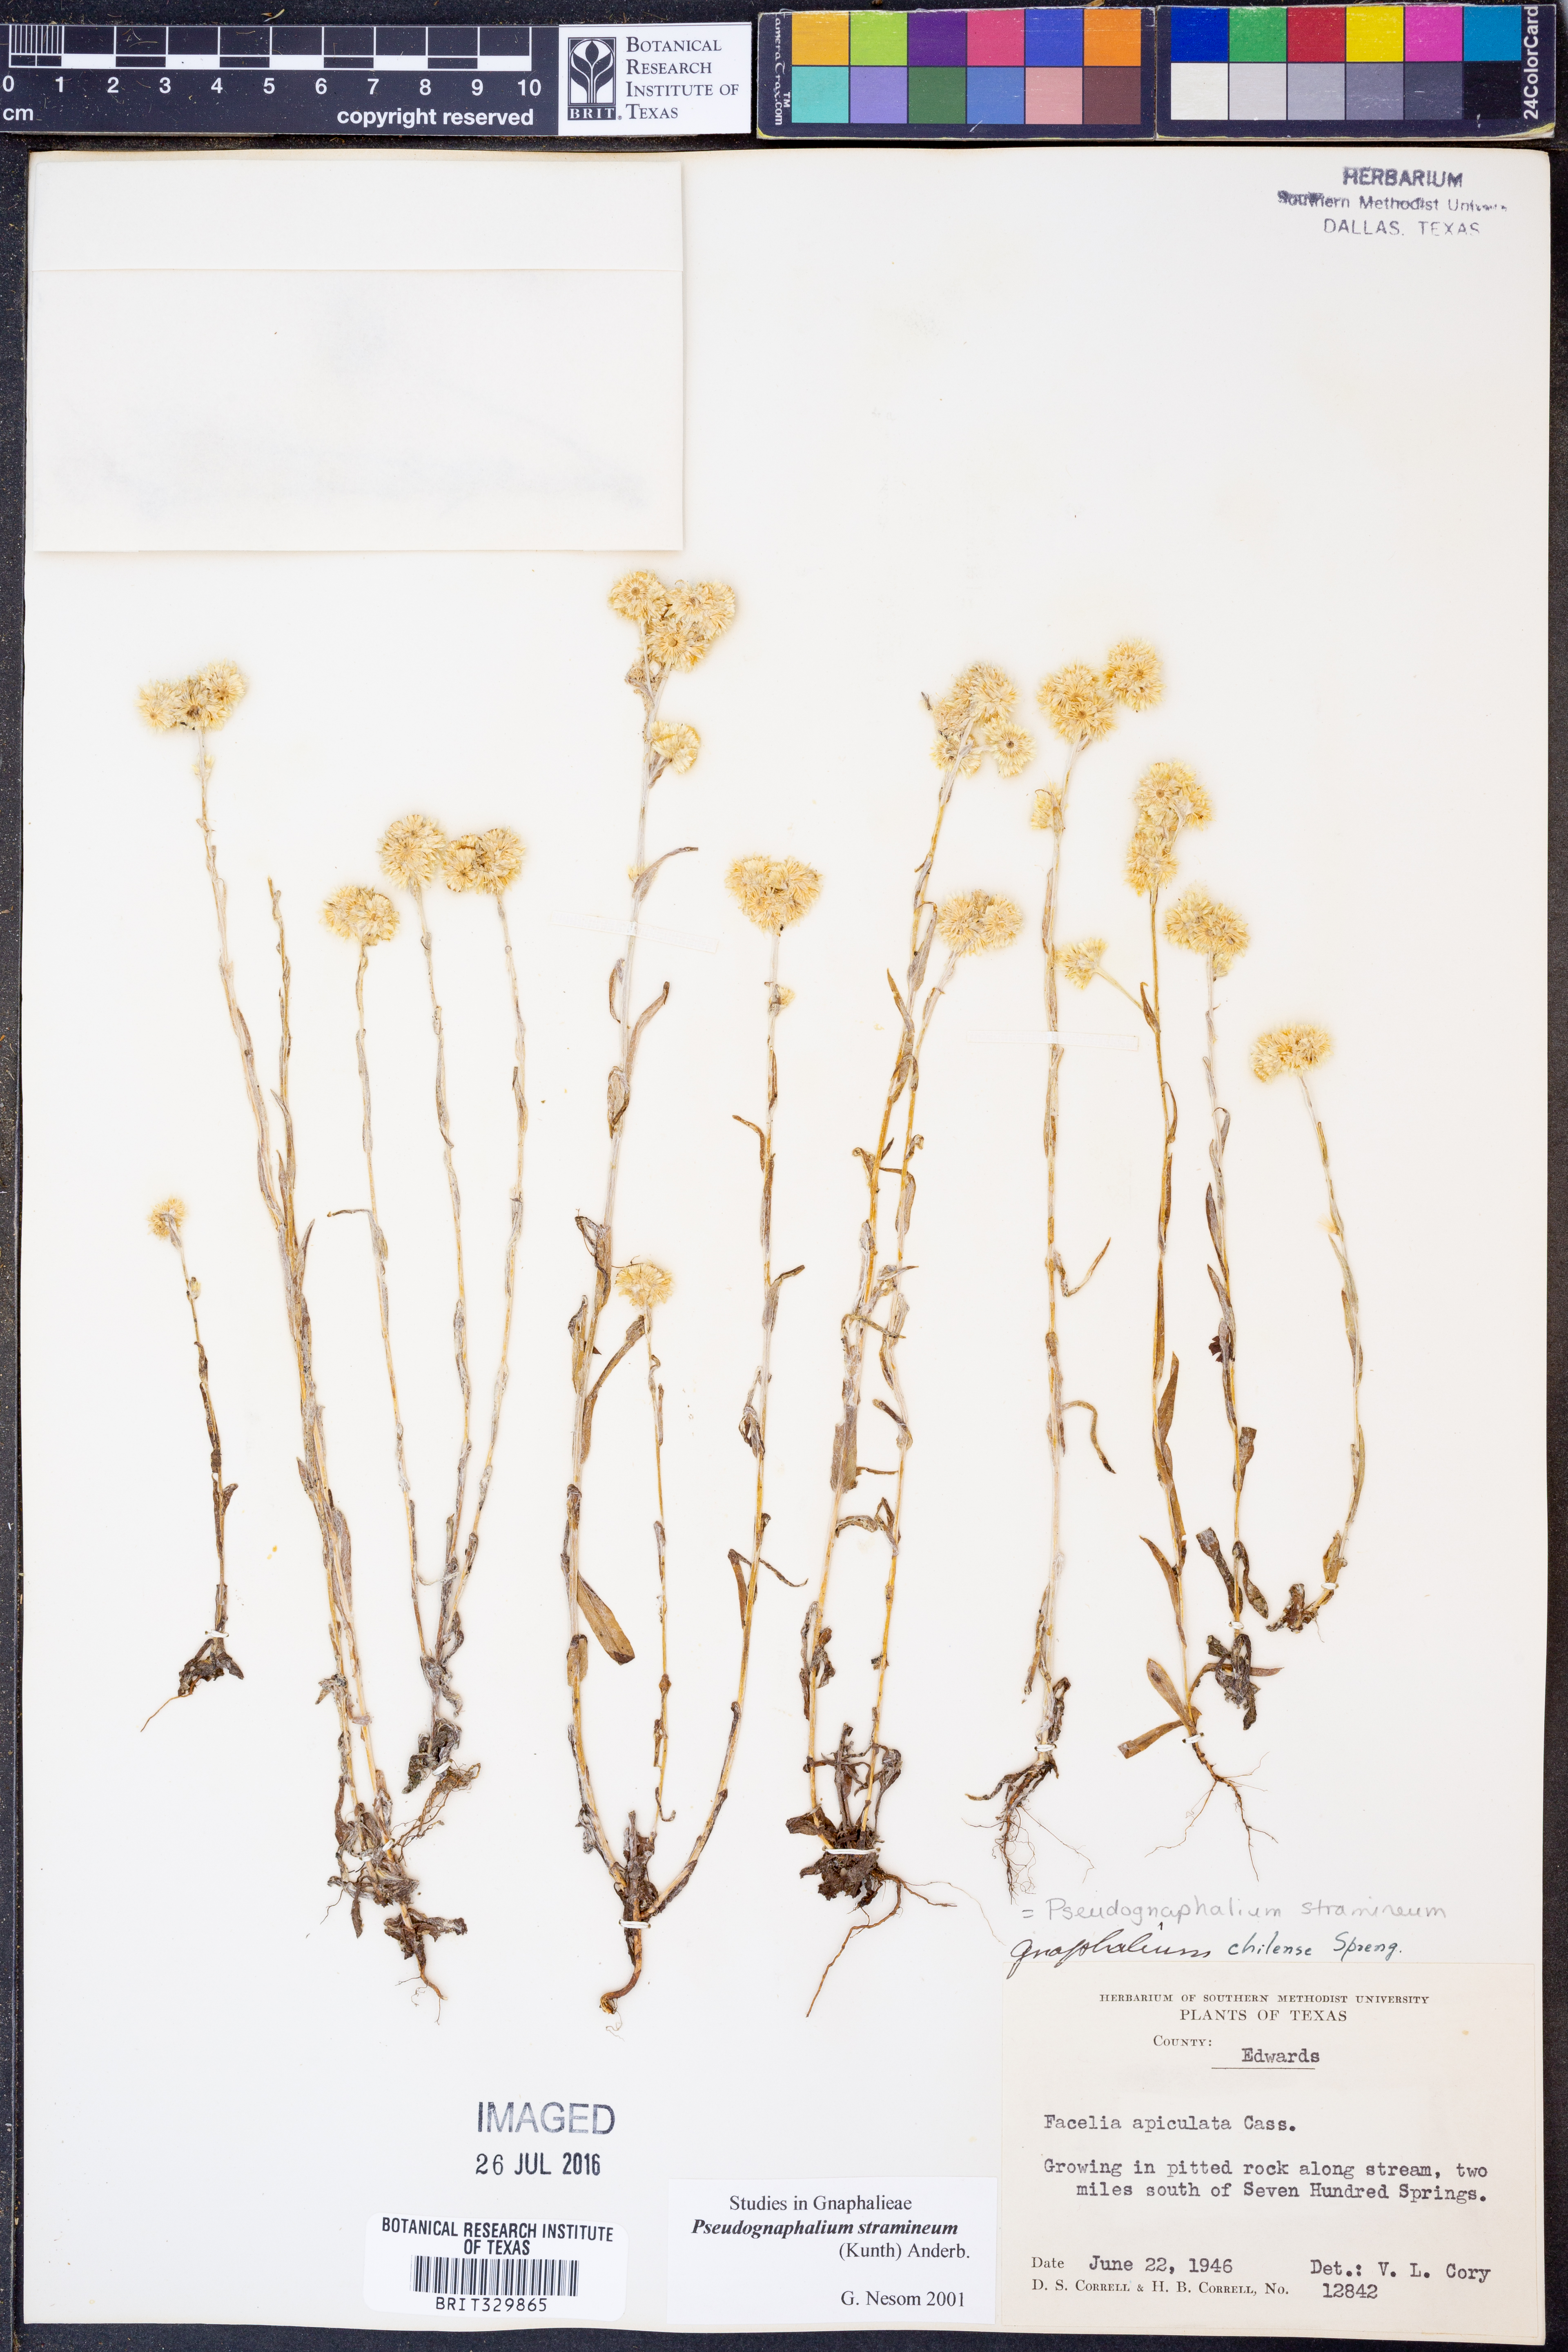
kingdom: Plantae
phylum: Tracheophyta
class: Magnoliopsida
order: Asterales
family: Asteraceae
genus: Pseudognaphalium
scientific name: Pseudognaphalium stramineum
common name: Cotton-batting-plant
